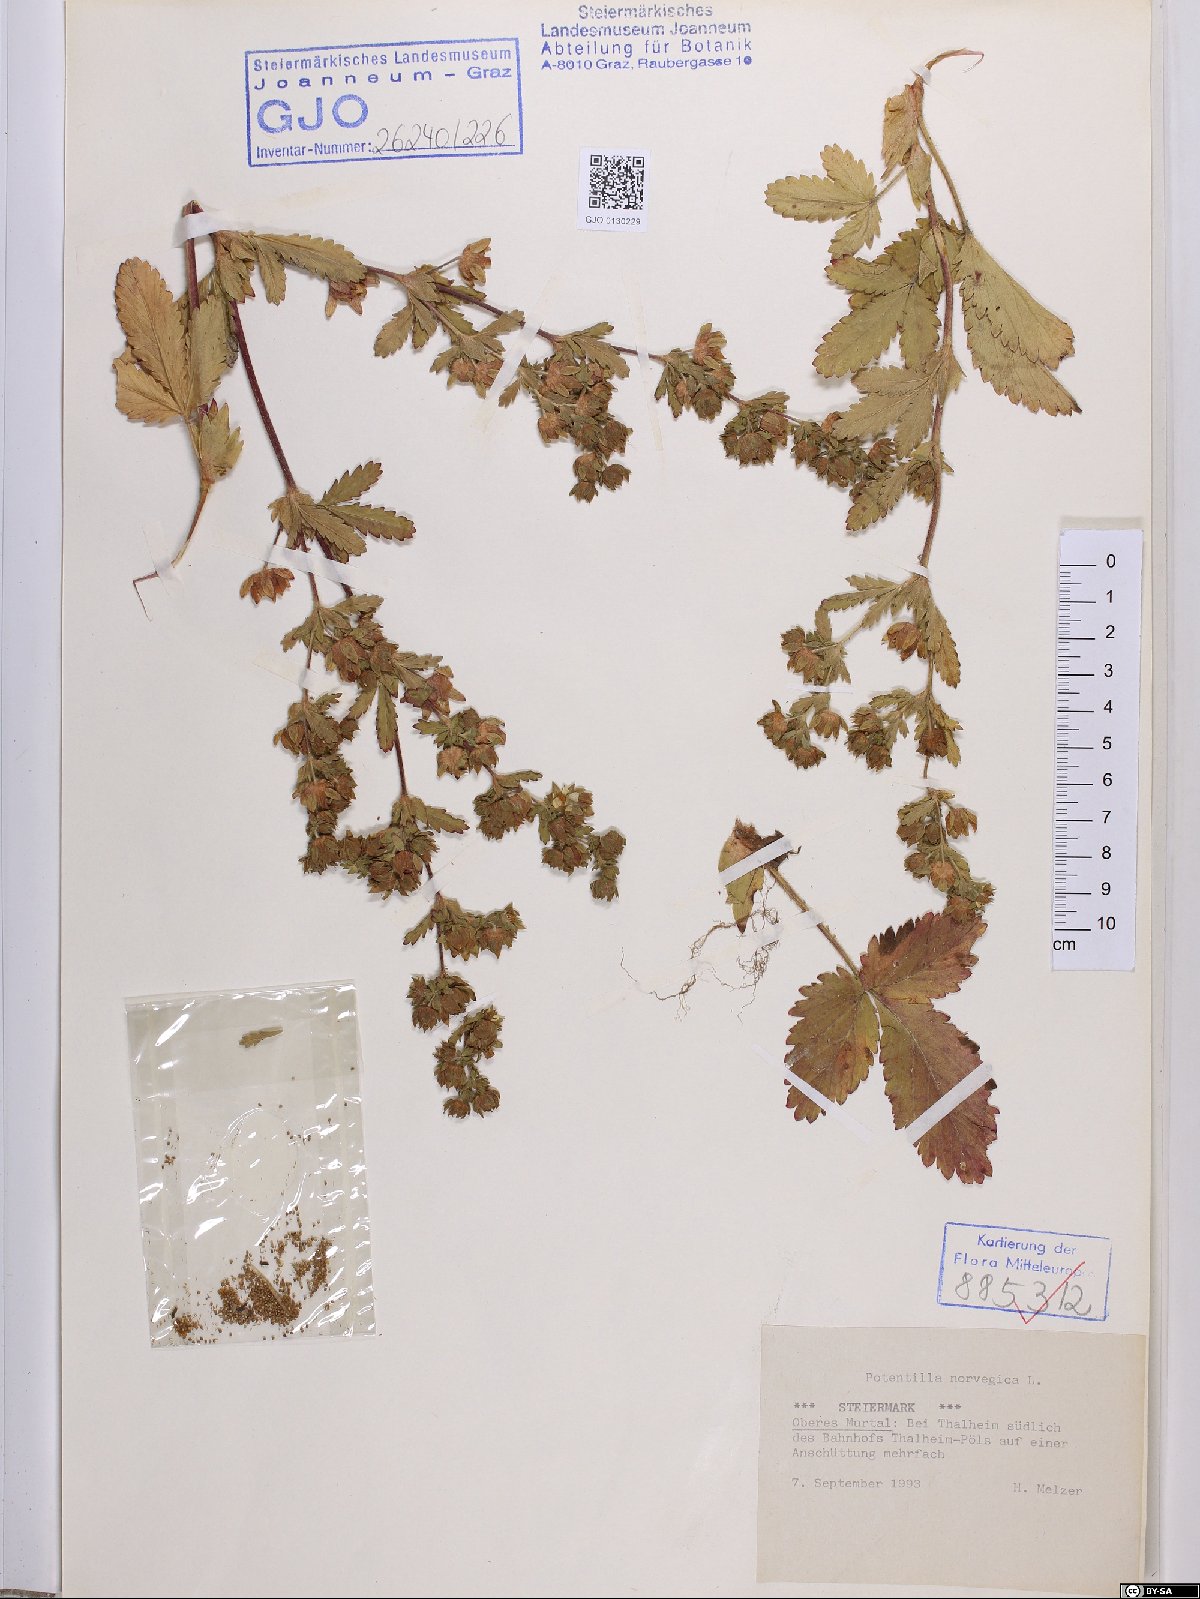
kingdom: Plantae
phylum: Tracheophyta
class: Magnoliopsida
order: Rosales
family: Rosaceae
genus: Potentilla
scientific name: Potentilla norvegica
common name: Ternate-leaved cinquefoil
